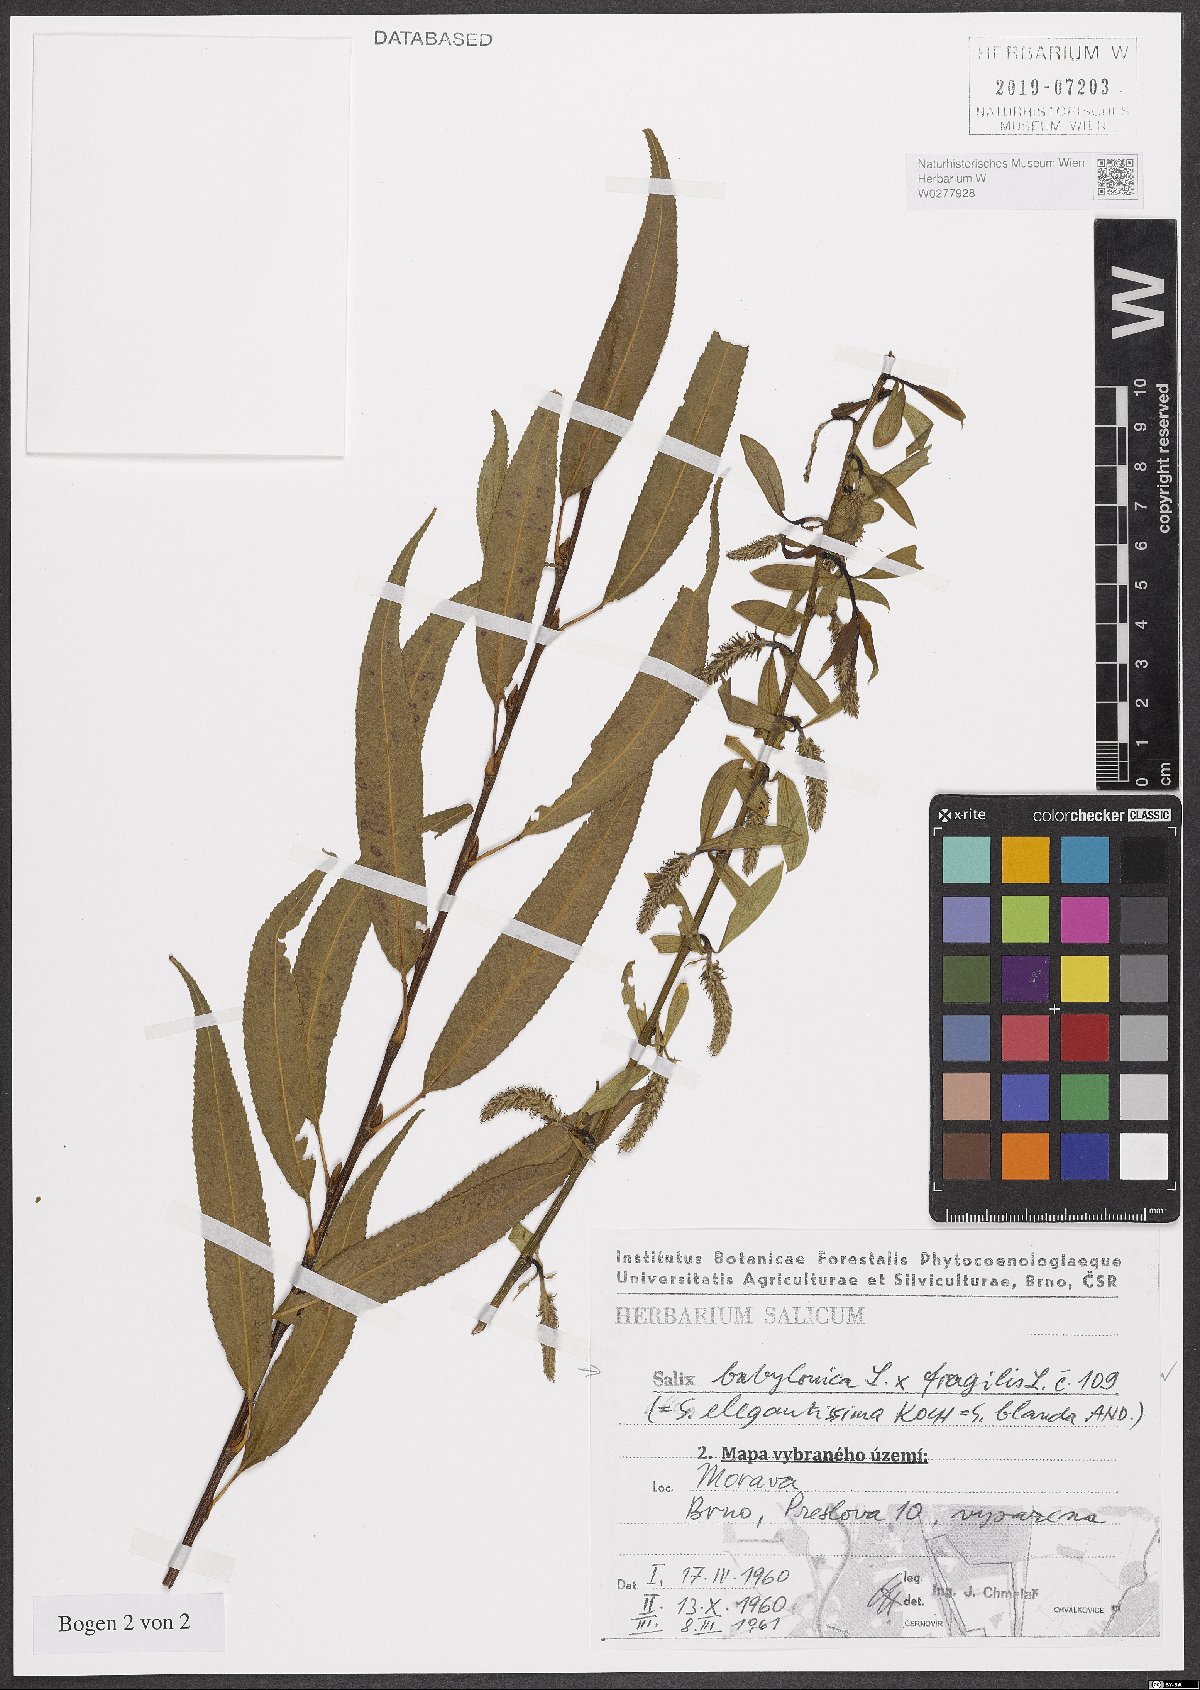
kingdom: Plantae
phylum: Tracheophyta
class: Magnoliopsida
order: Malpighiales
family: Salicaceae
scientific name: Salicaceae
